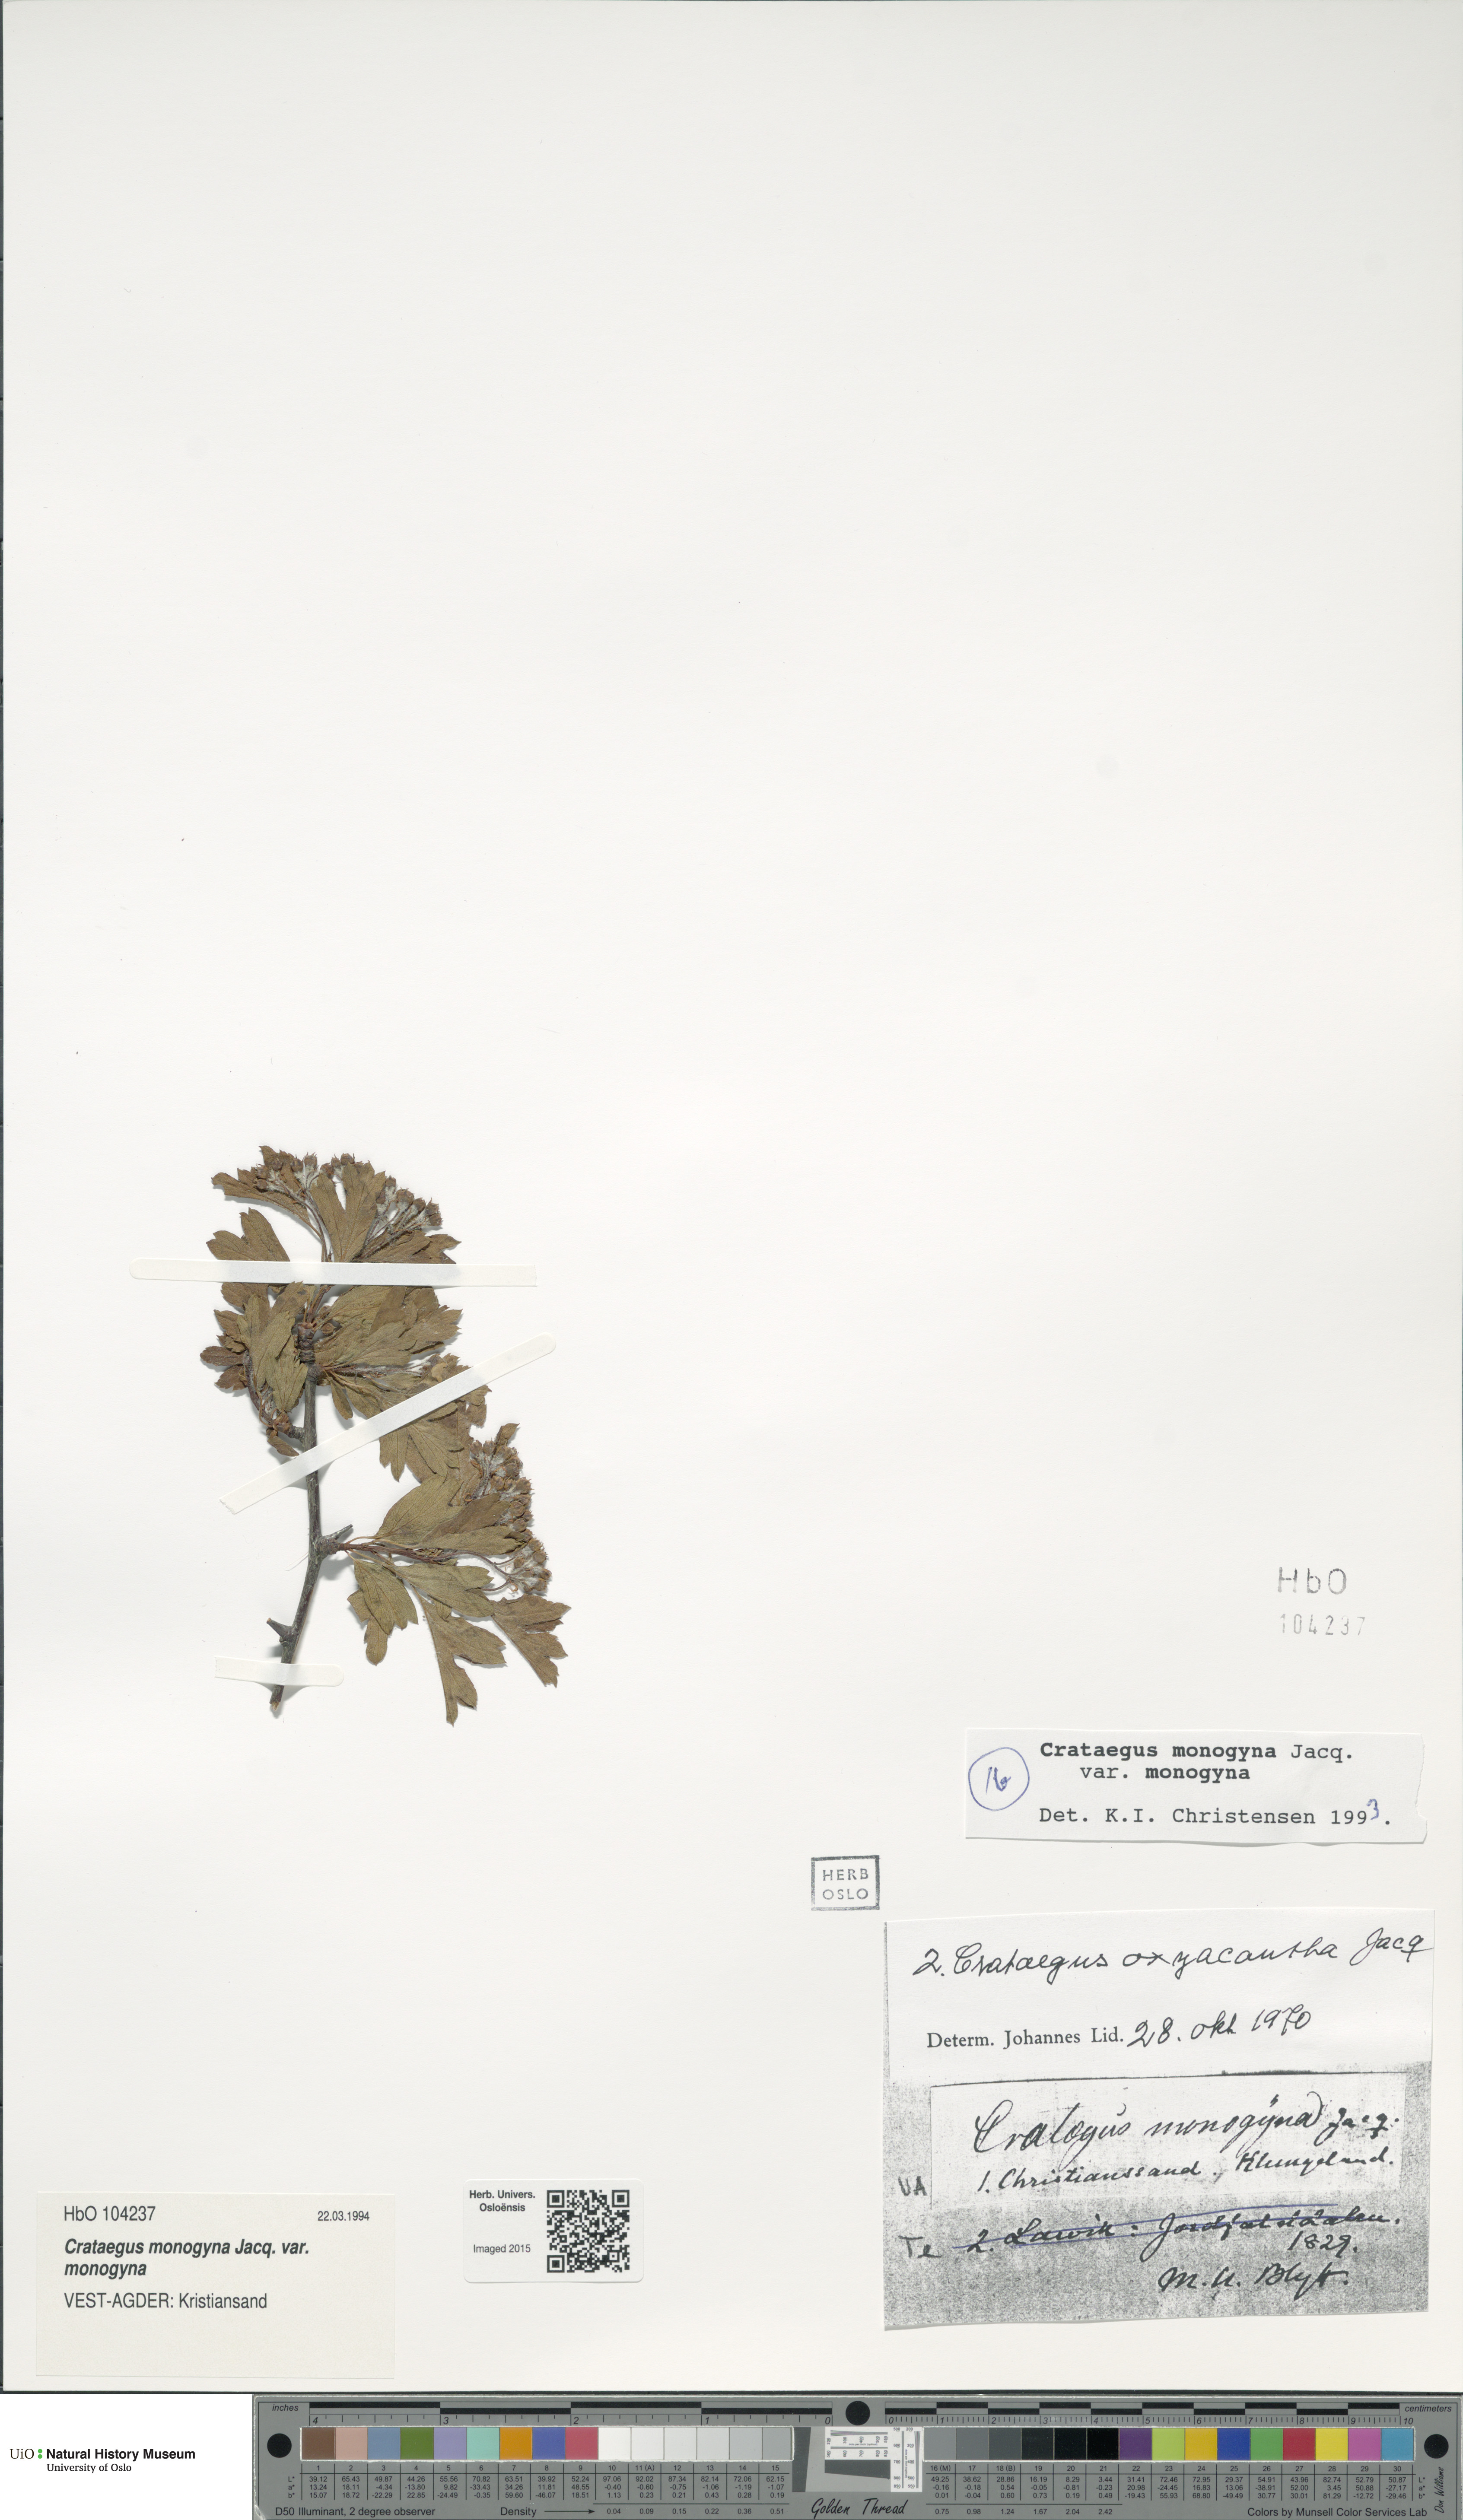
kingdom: Plantae
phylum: Tracheophyta
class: Magnoliopsida
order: Rosales
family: Rosaceae
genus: Crataegus
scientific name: Crataegus monogyna
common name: Hawthorn
